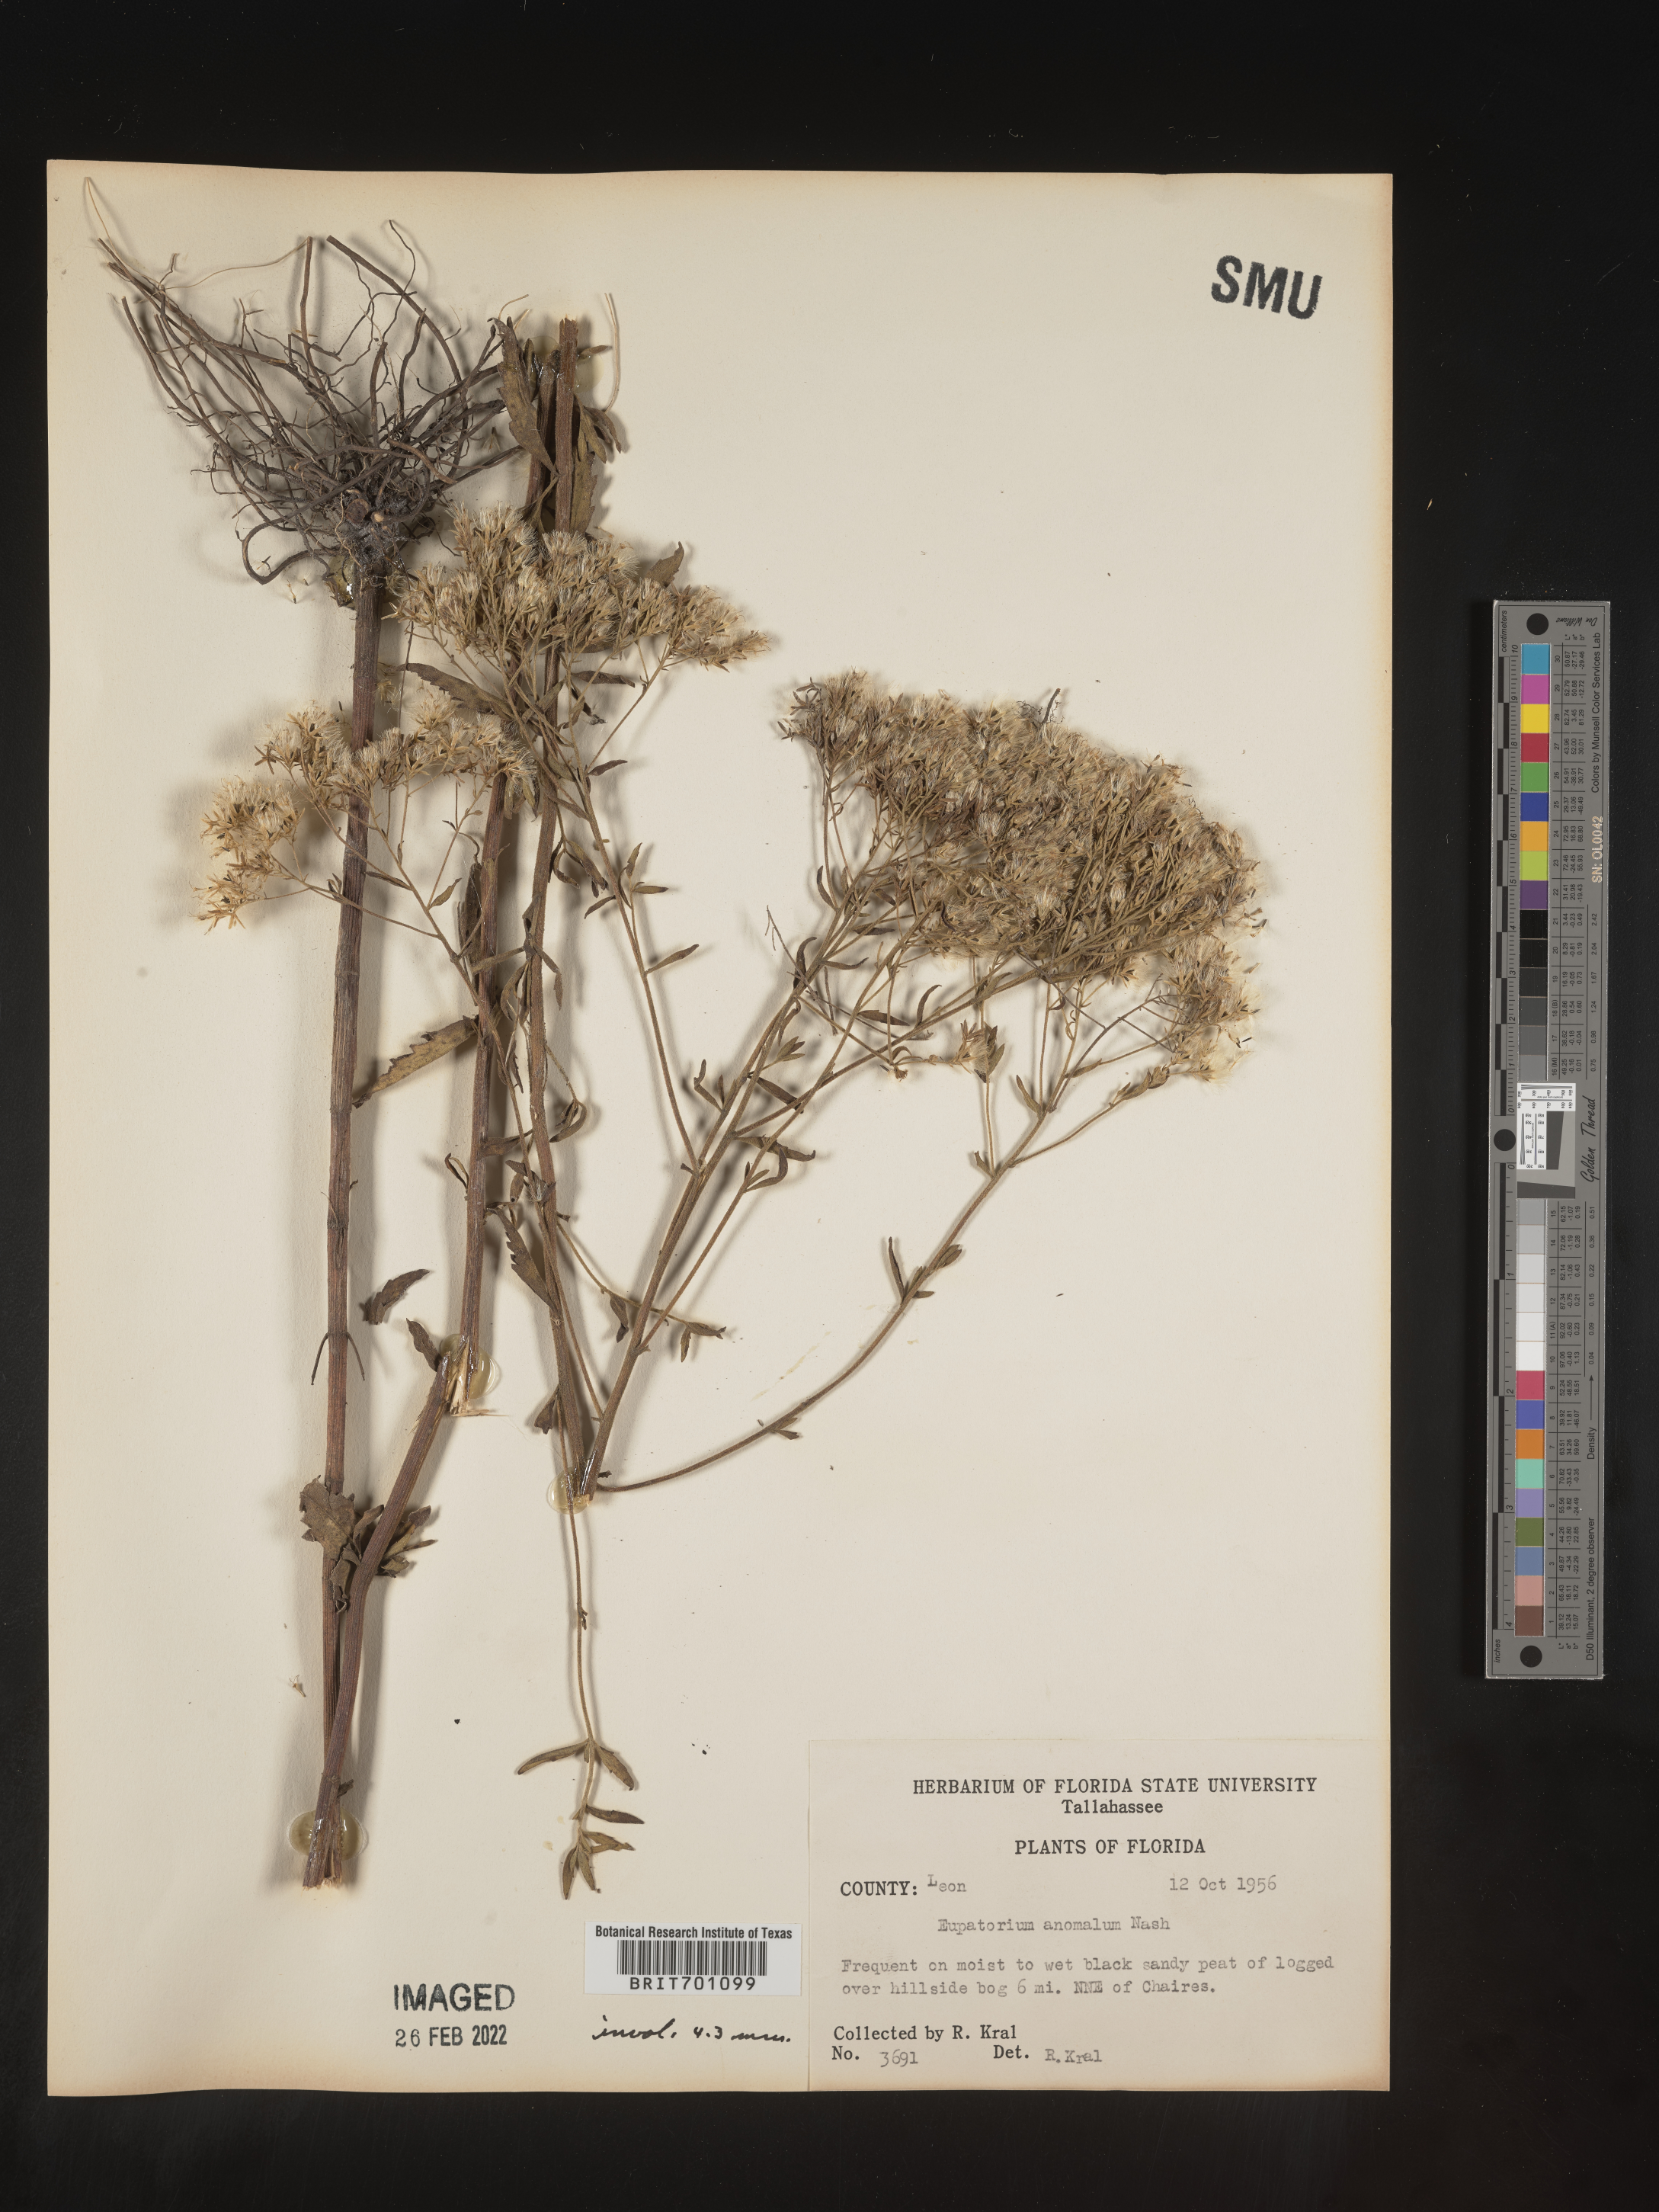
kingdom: Plantae
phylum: Tracheophyta
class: Magnoliopsida
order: Asterales
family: Asteraceae
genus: Eupatorium
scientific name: Eupatorium anomalum
